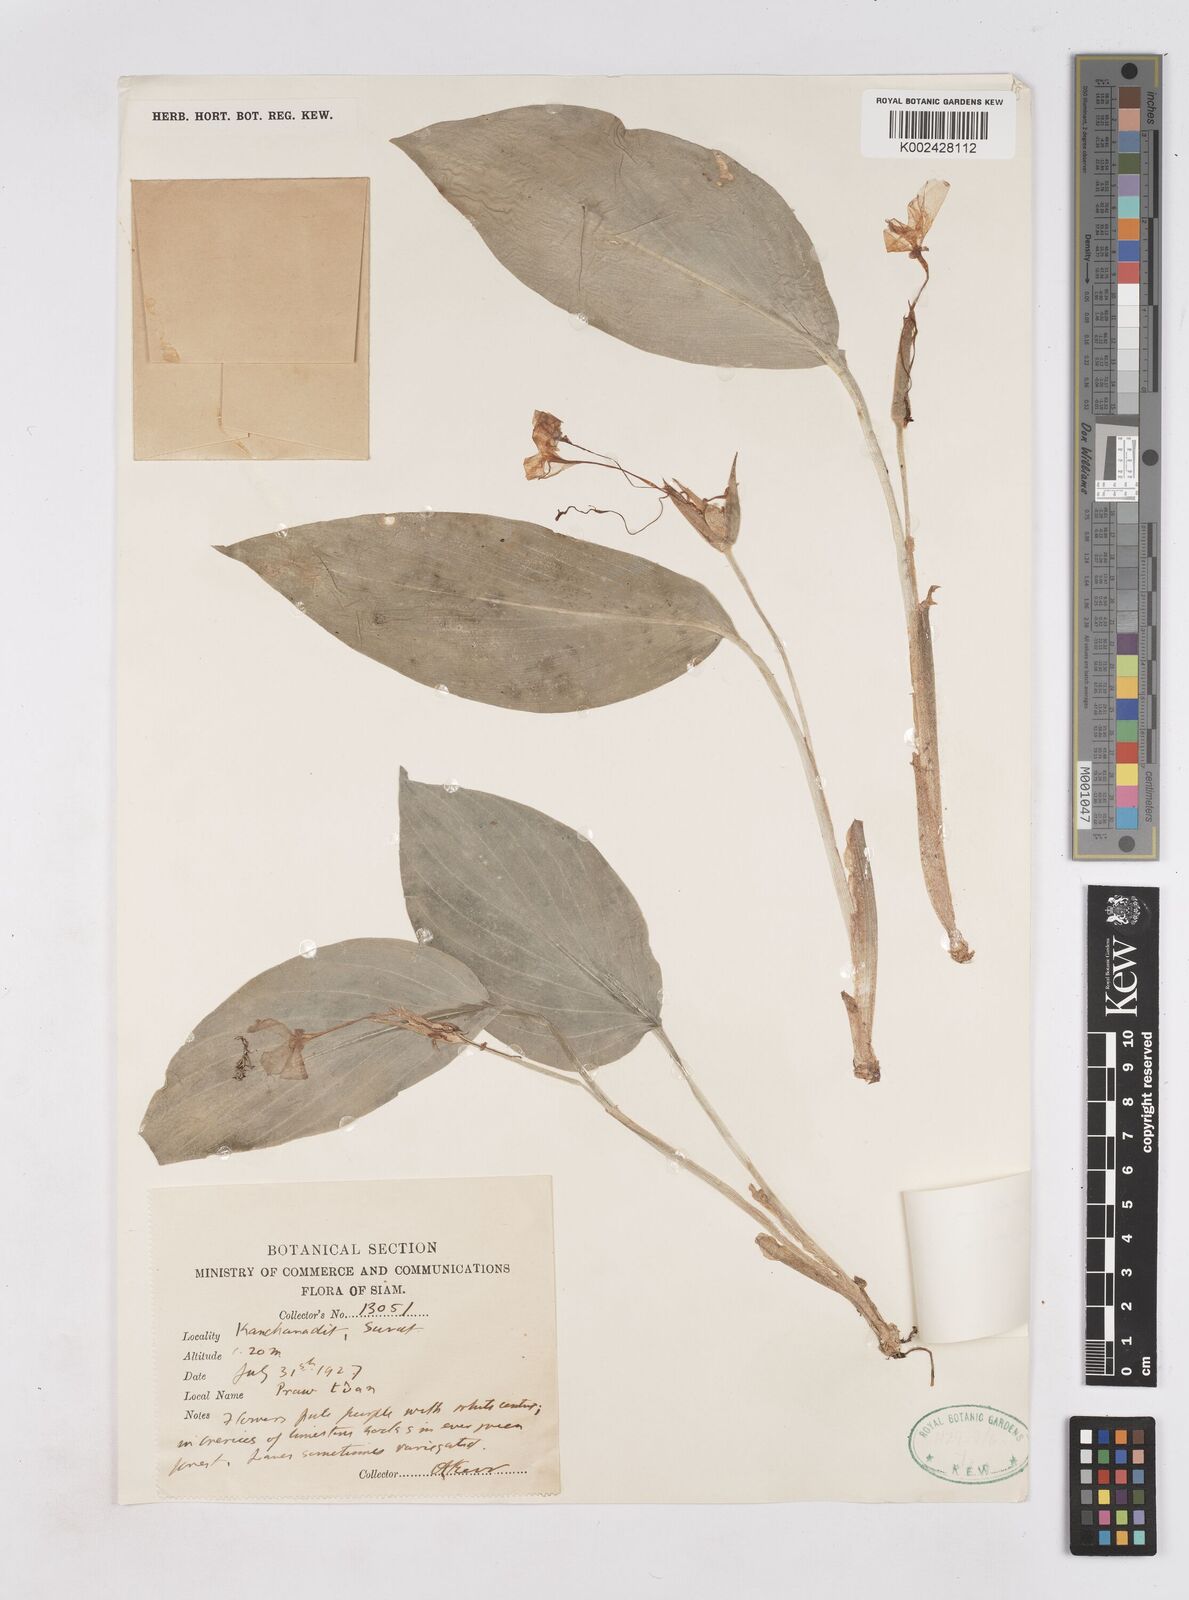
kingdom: Plantae
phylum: Tracheophyta
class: Liliopsida
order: Zingiberales
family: Zingiberaceae
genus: Kaempferia
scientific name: Kaempferia elegans
